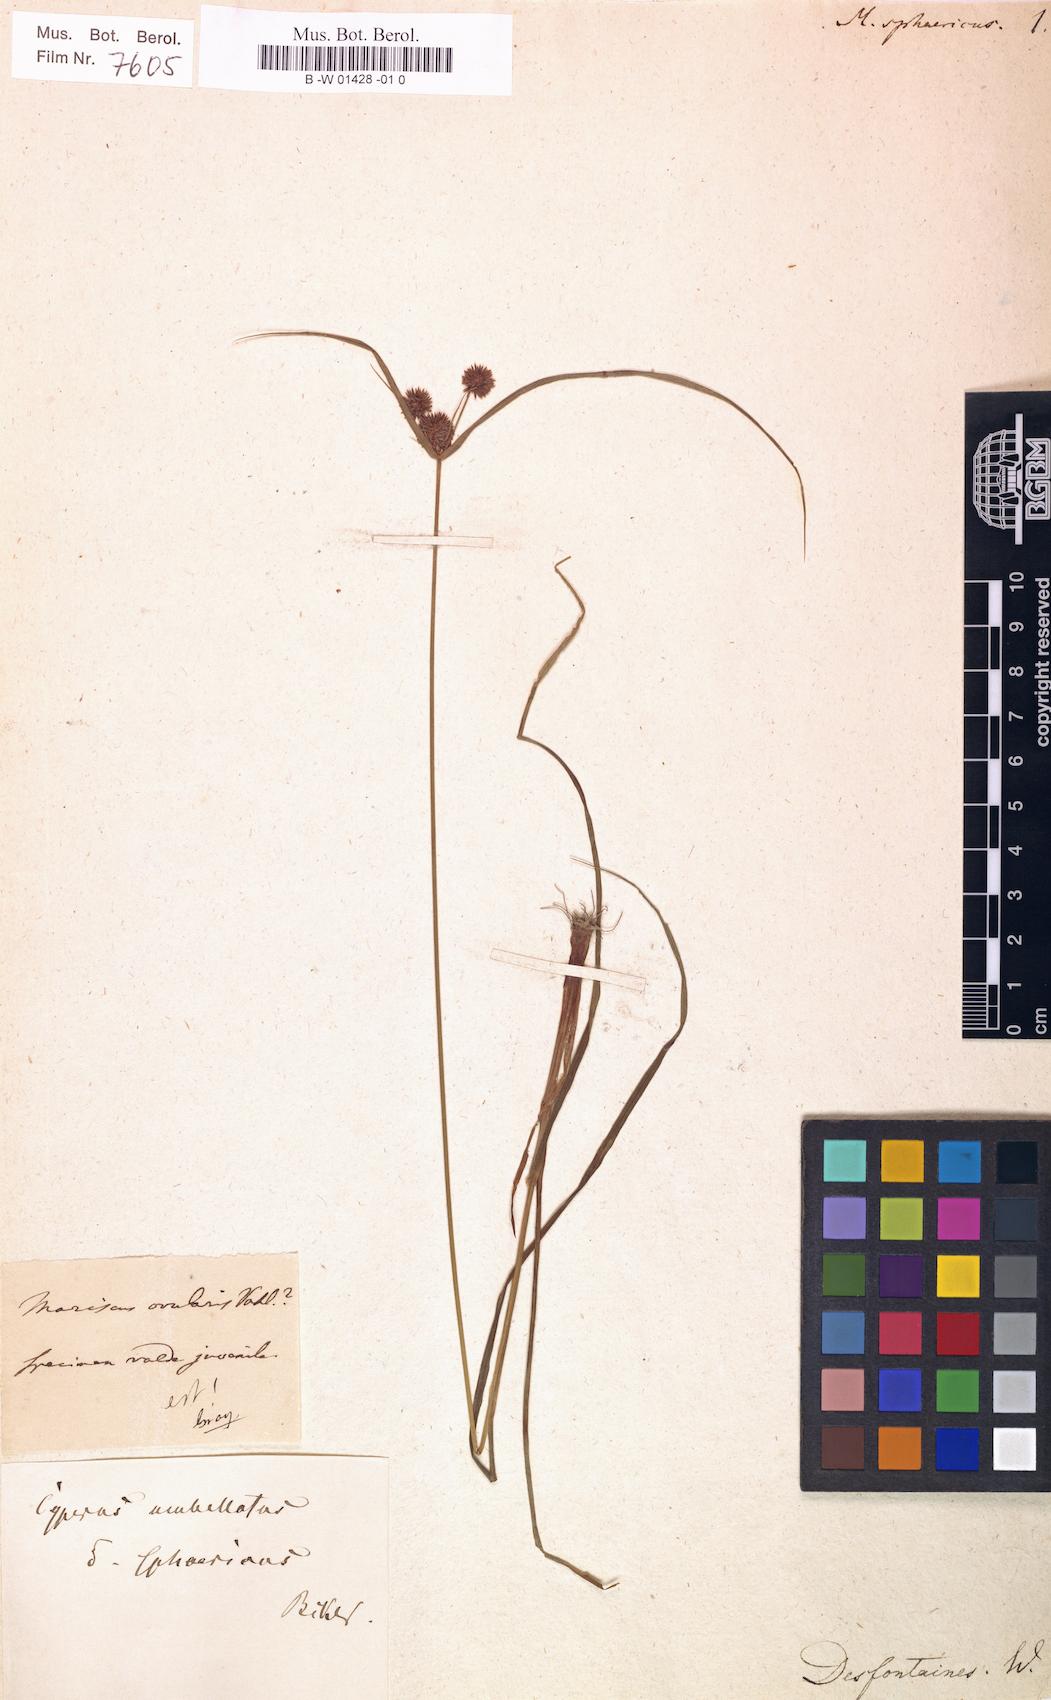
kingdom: Plantae
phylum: Tracheophyta
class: Liliopsida
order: Poales
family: Cyperaceae
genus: Cyperus
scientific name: Cyperus echinatus
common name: Teasel sedge
